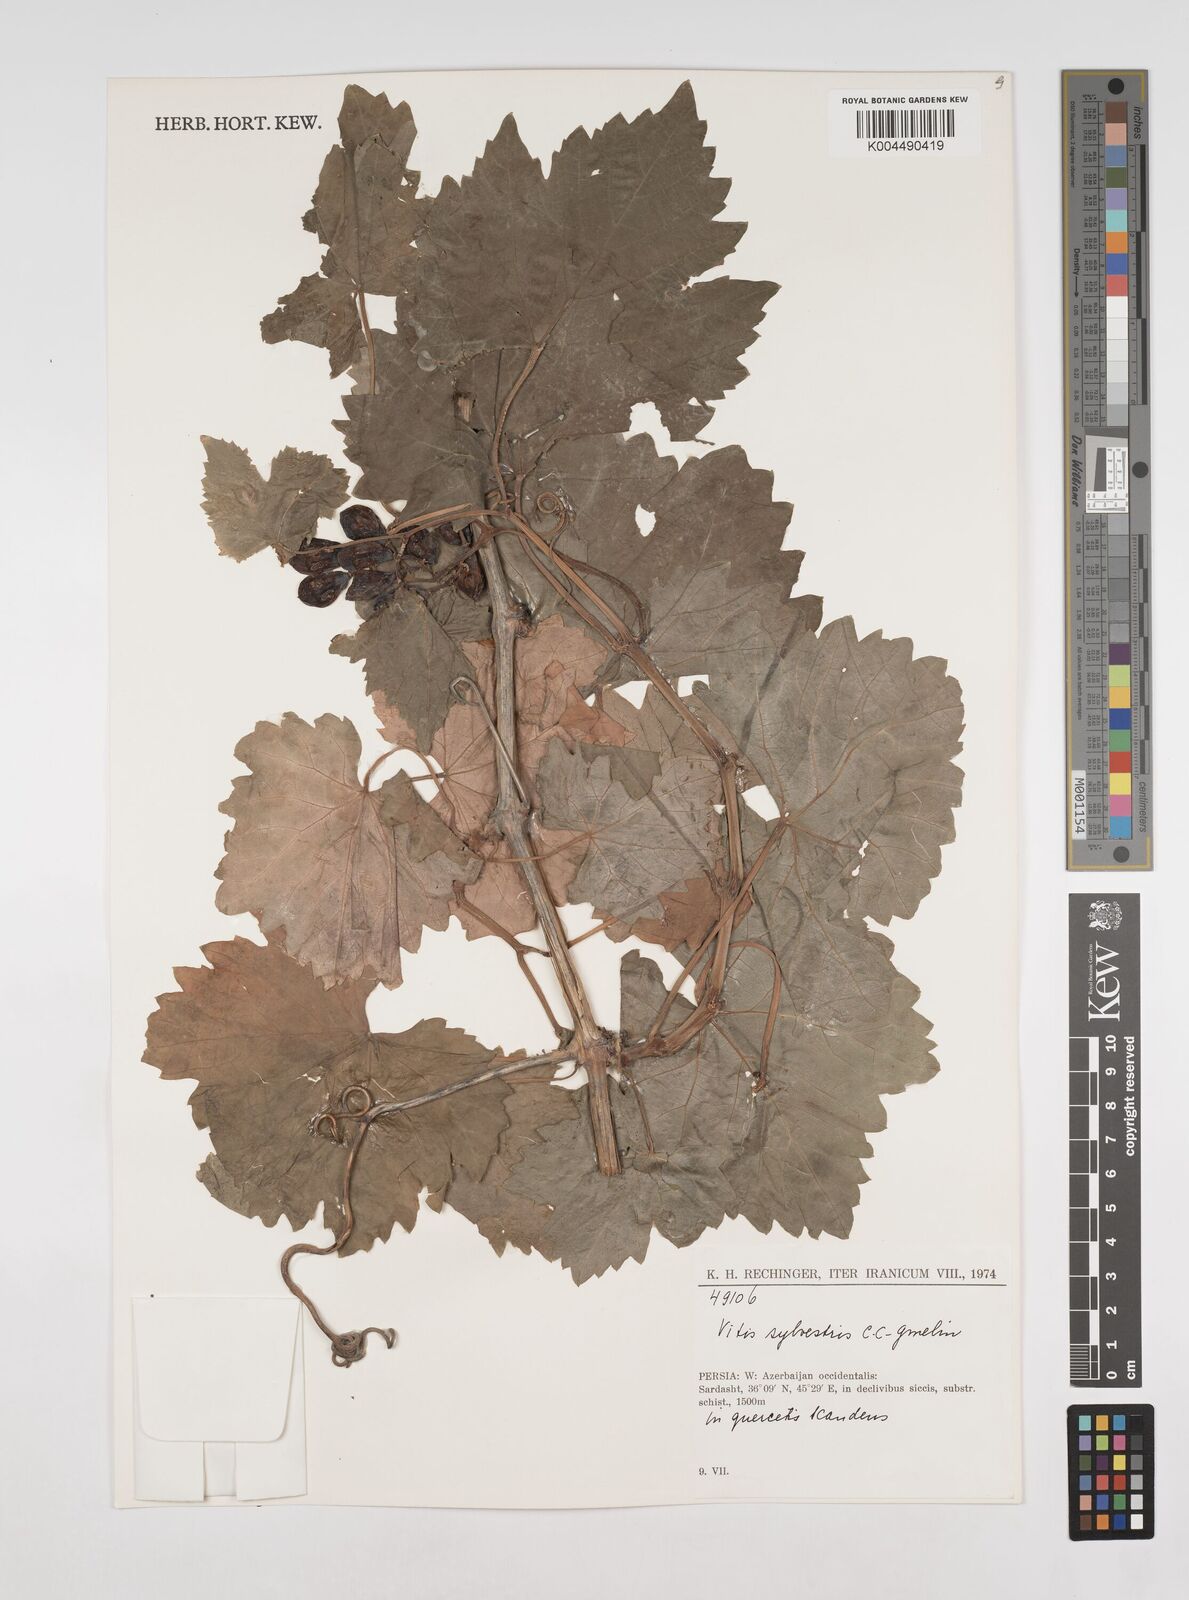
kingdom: Plantae
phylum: Tracheophyta
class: Magnoliopsida
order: Vitales
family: Vitaceae
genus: Vitis
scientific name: Vitis
